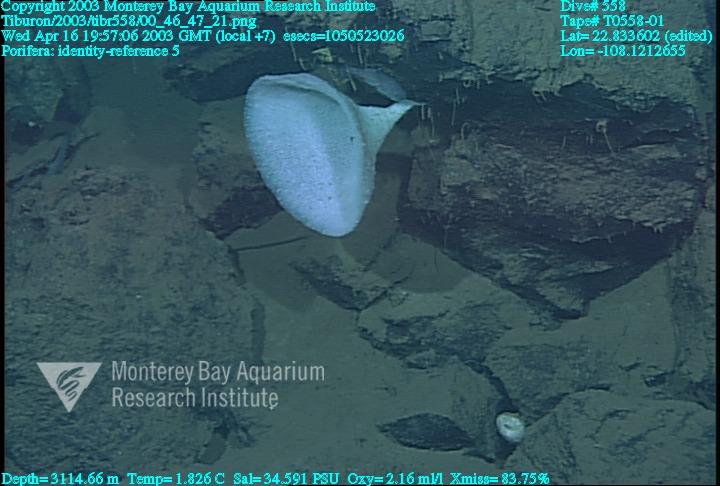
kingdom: Animalia
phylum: Porifera
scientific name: Porifera
